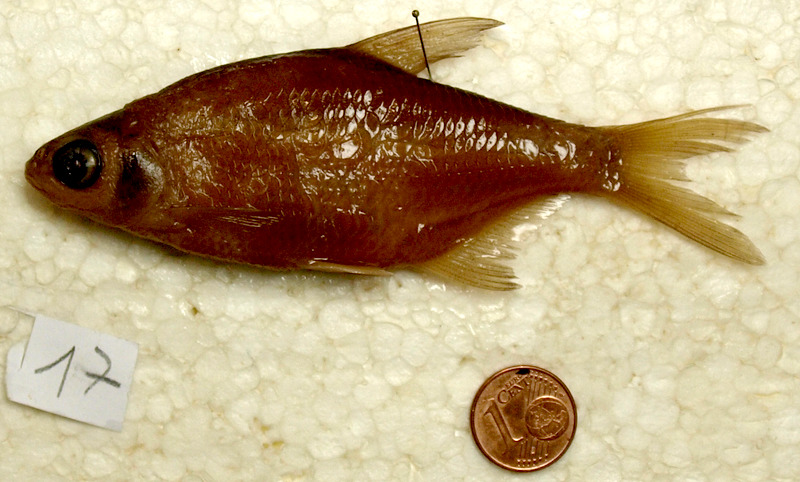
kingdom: Animalia
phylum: Chordata
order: Cypriniformes
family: Cyprinidae
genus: Blicca
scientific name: Blicca bjoerkna
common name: White bream
